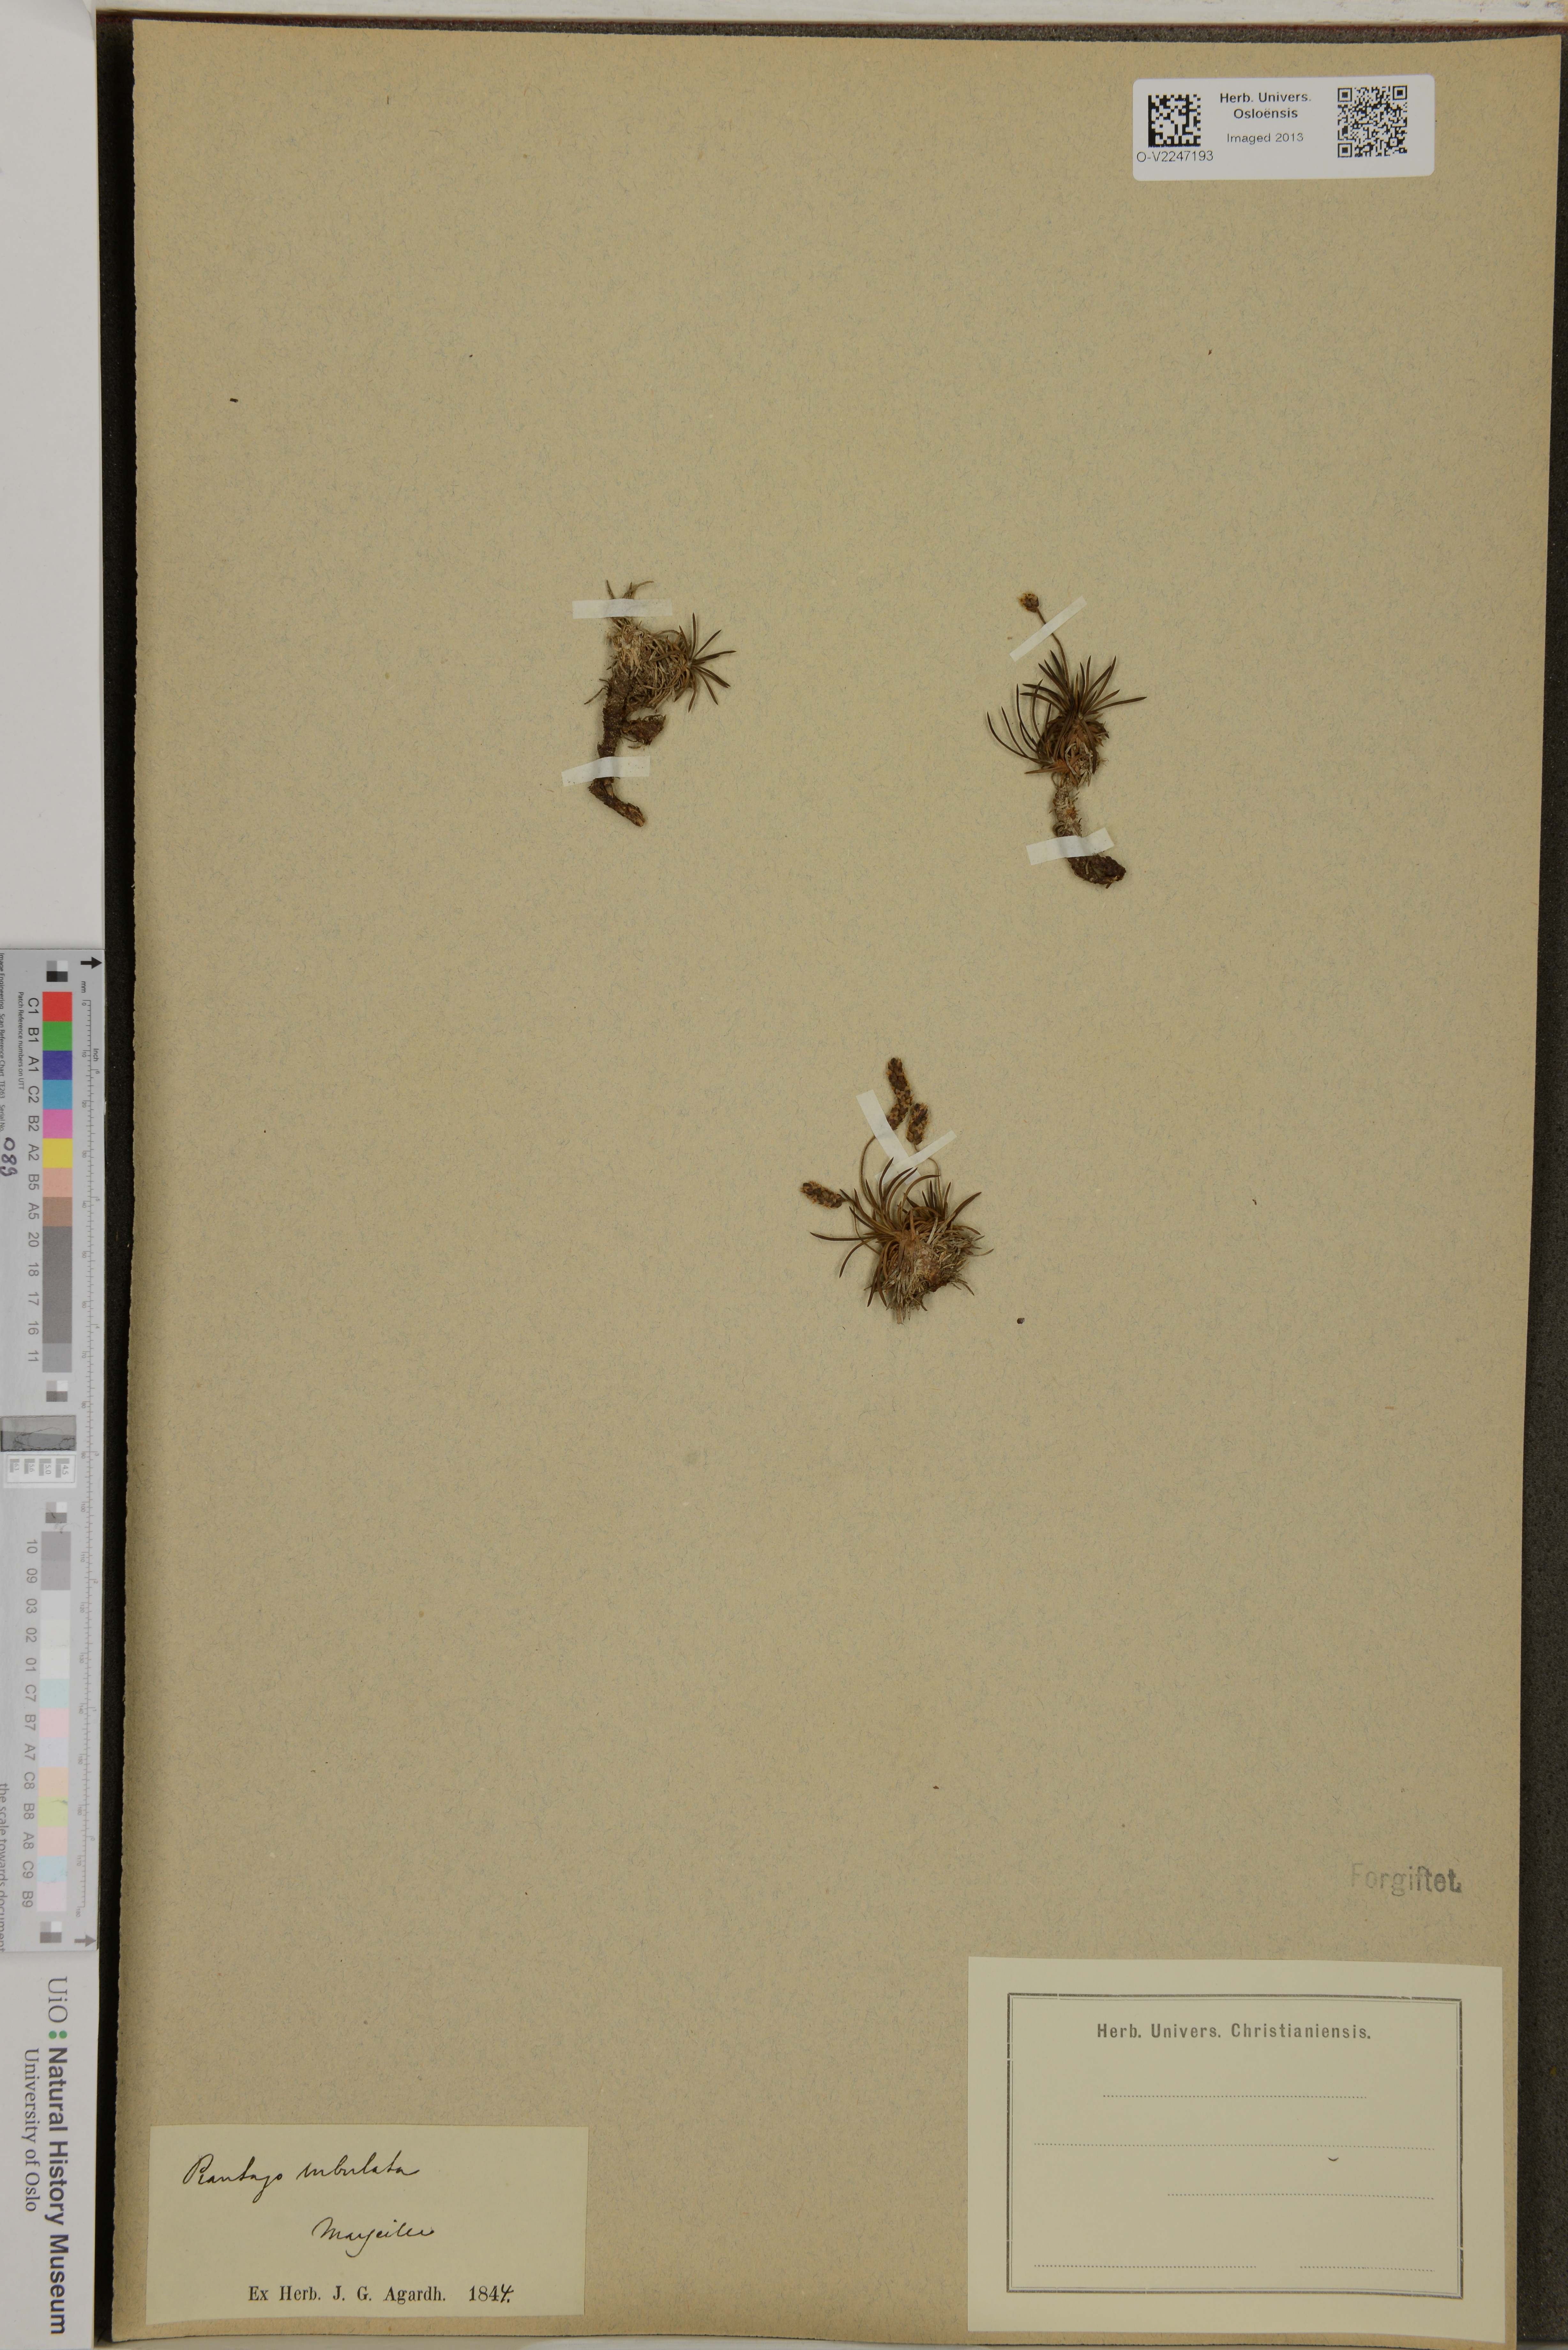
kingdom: Plantae
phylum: Tracheophyta
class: Magnoliopsida
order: Lamiales
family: Plantaginaceae
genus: Plantago
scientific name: Plantago subulata
